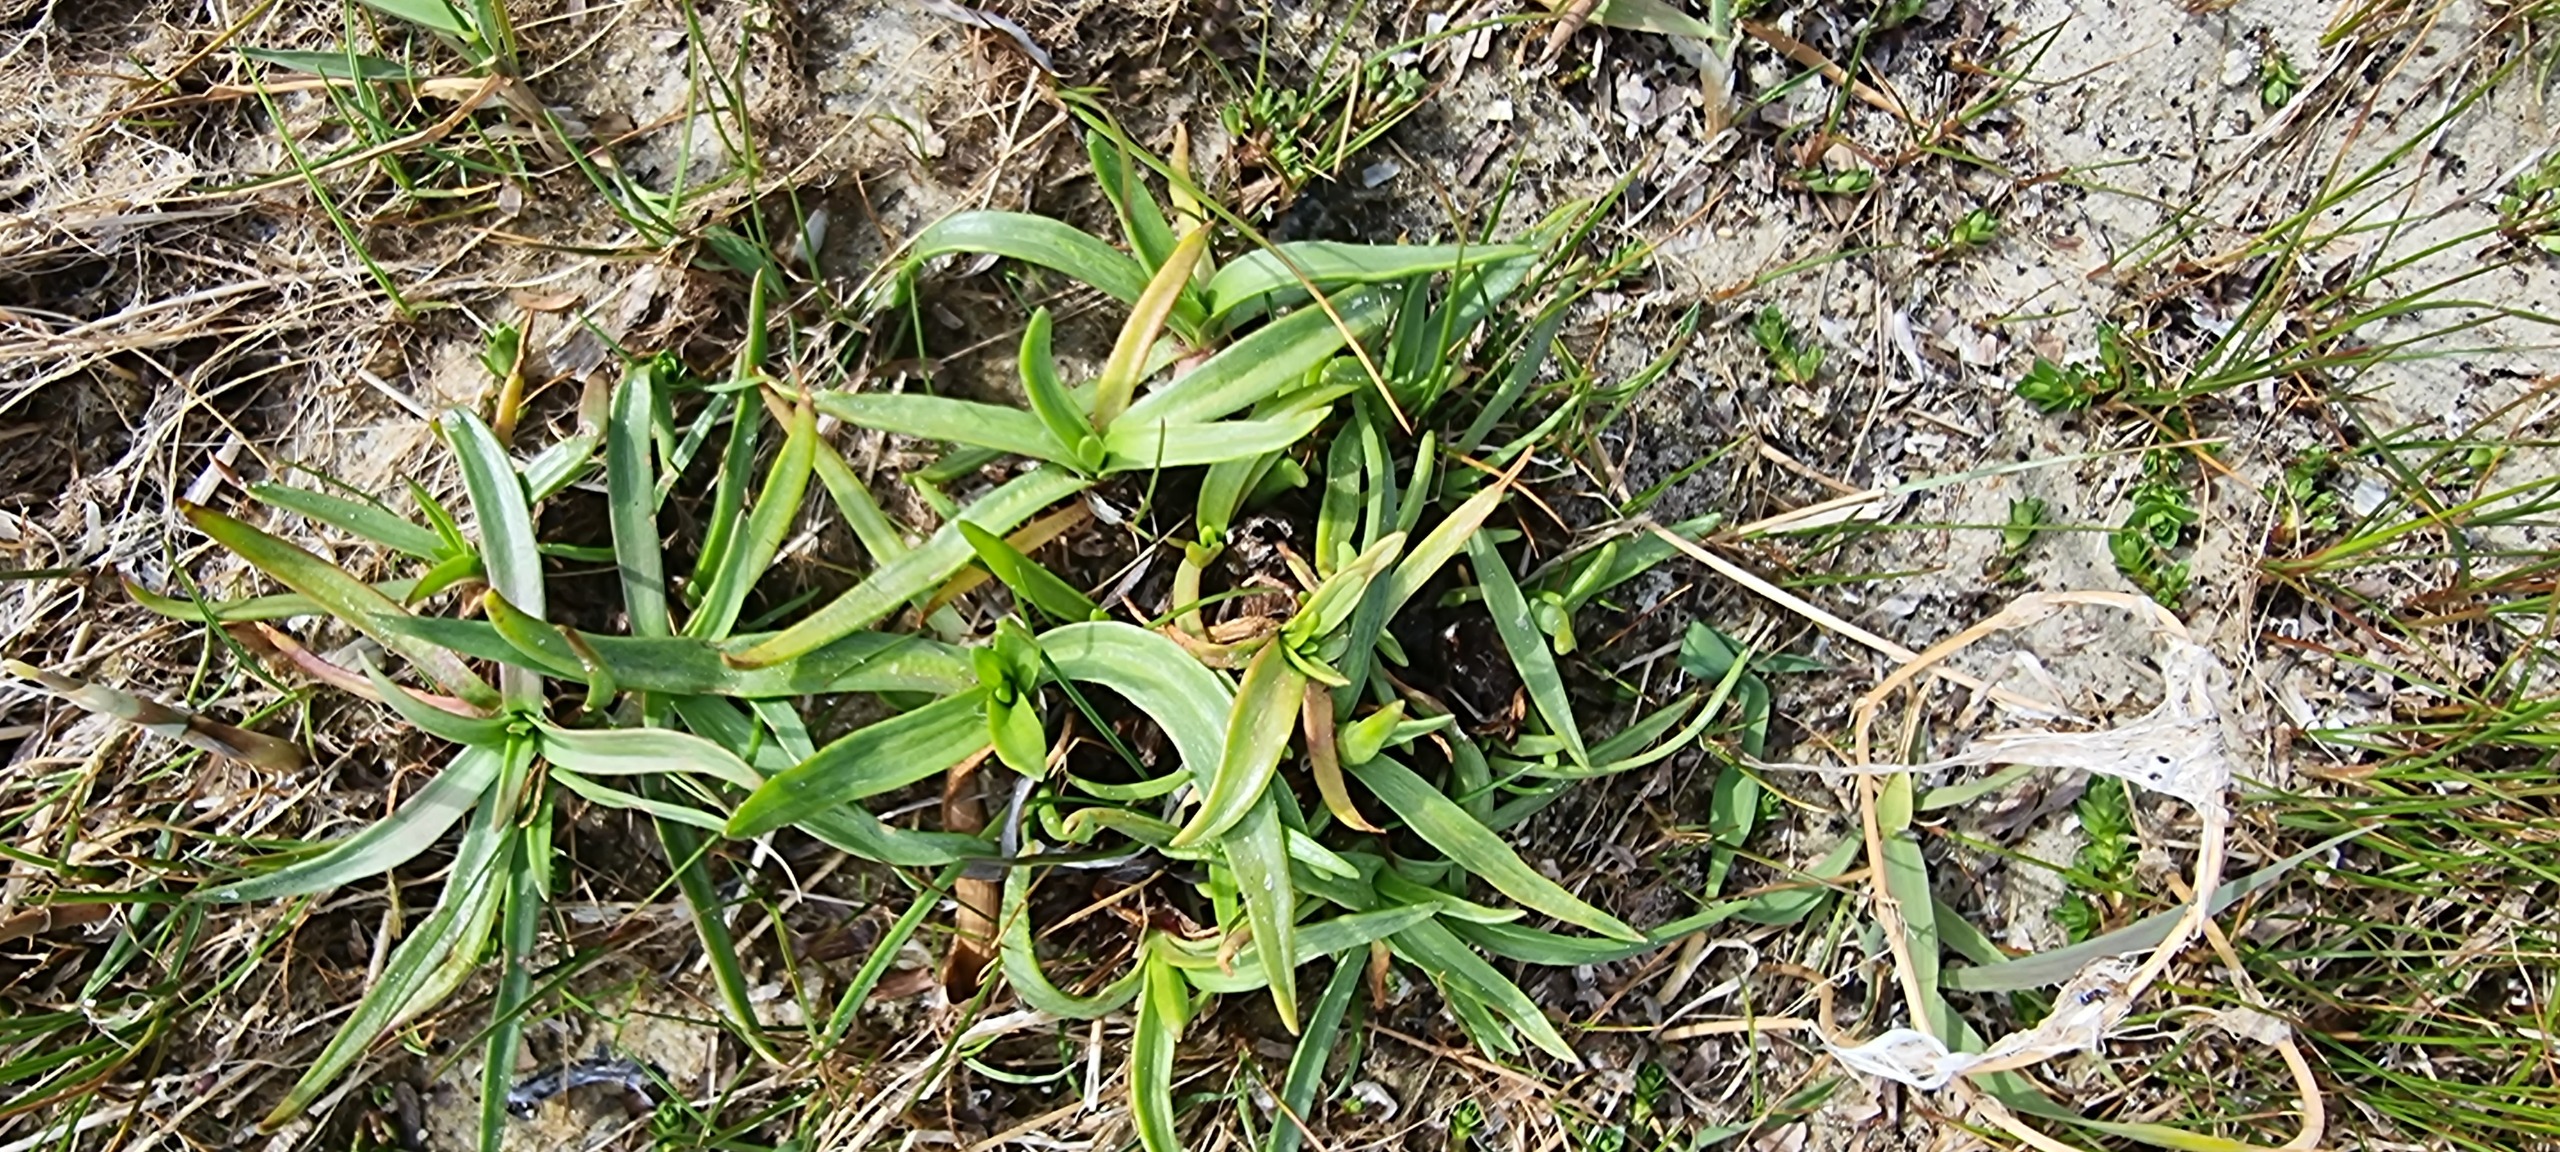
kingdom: Plantae
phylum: Tracheophyta
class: Magnoliopsida
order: Lamiales
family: Plantaginaceae
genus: Plantago
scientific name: Plantago maritima
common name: Strand-vejbred
